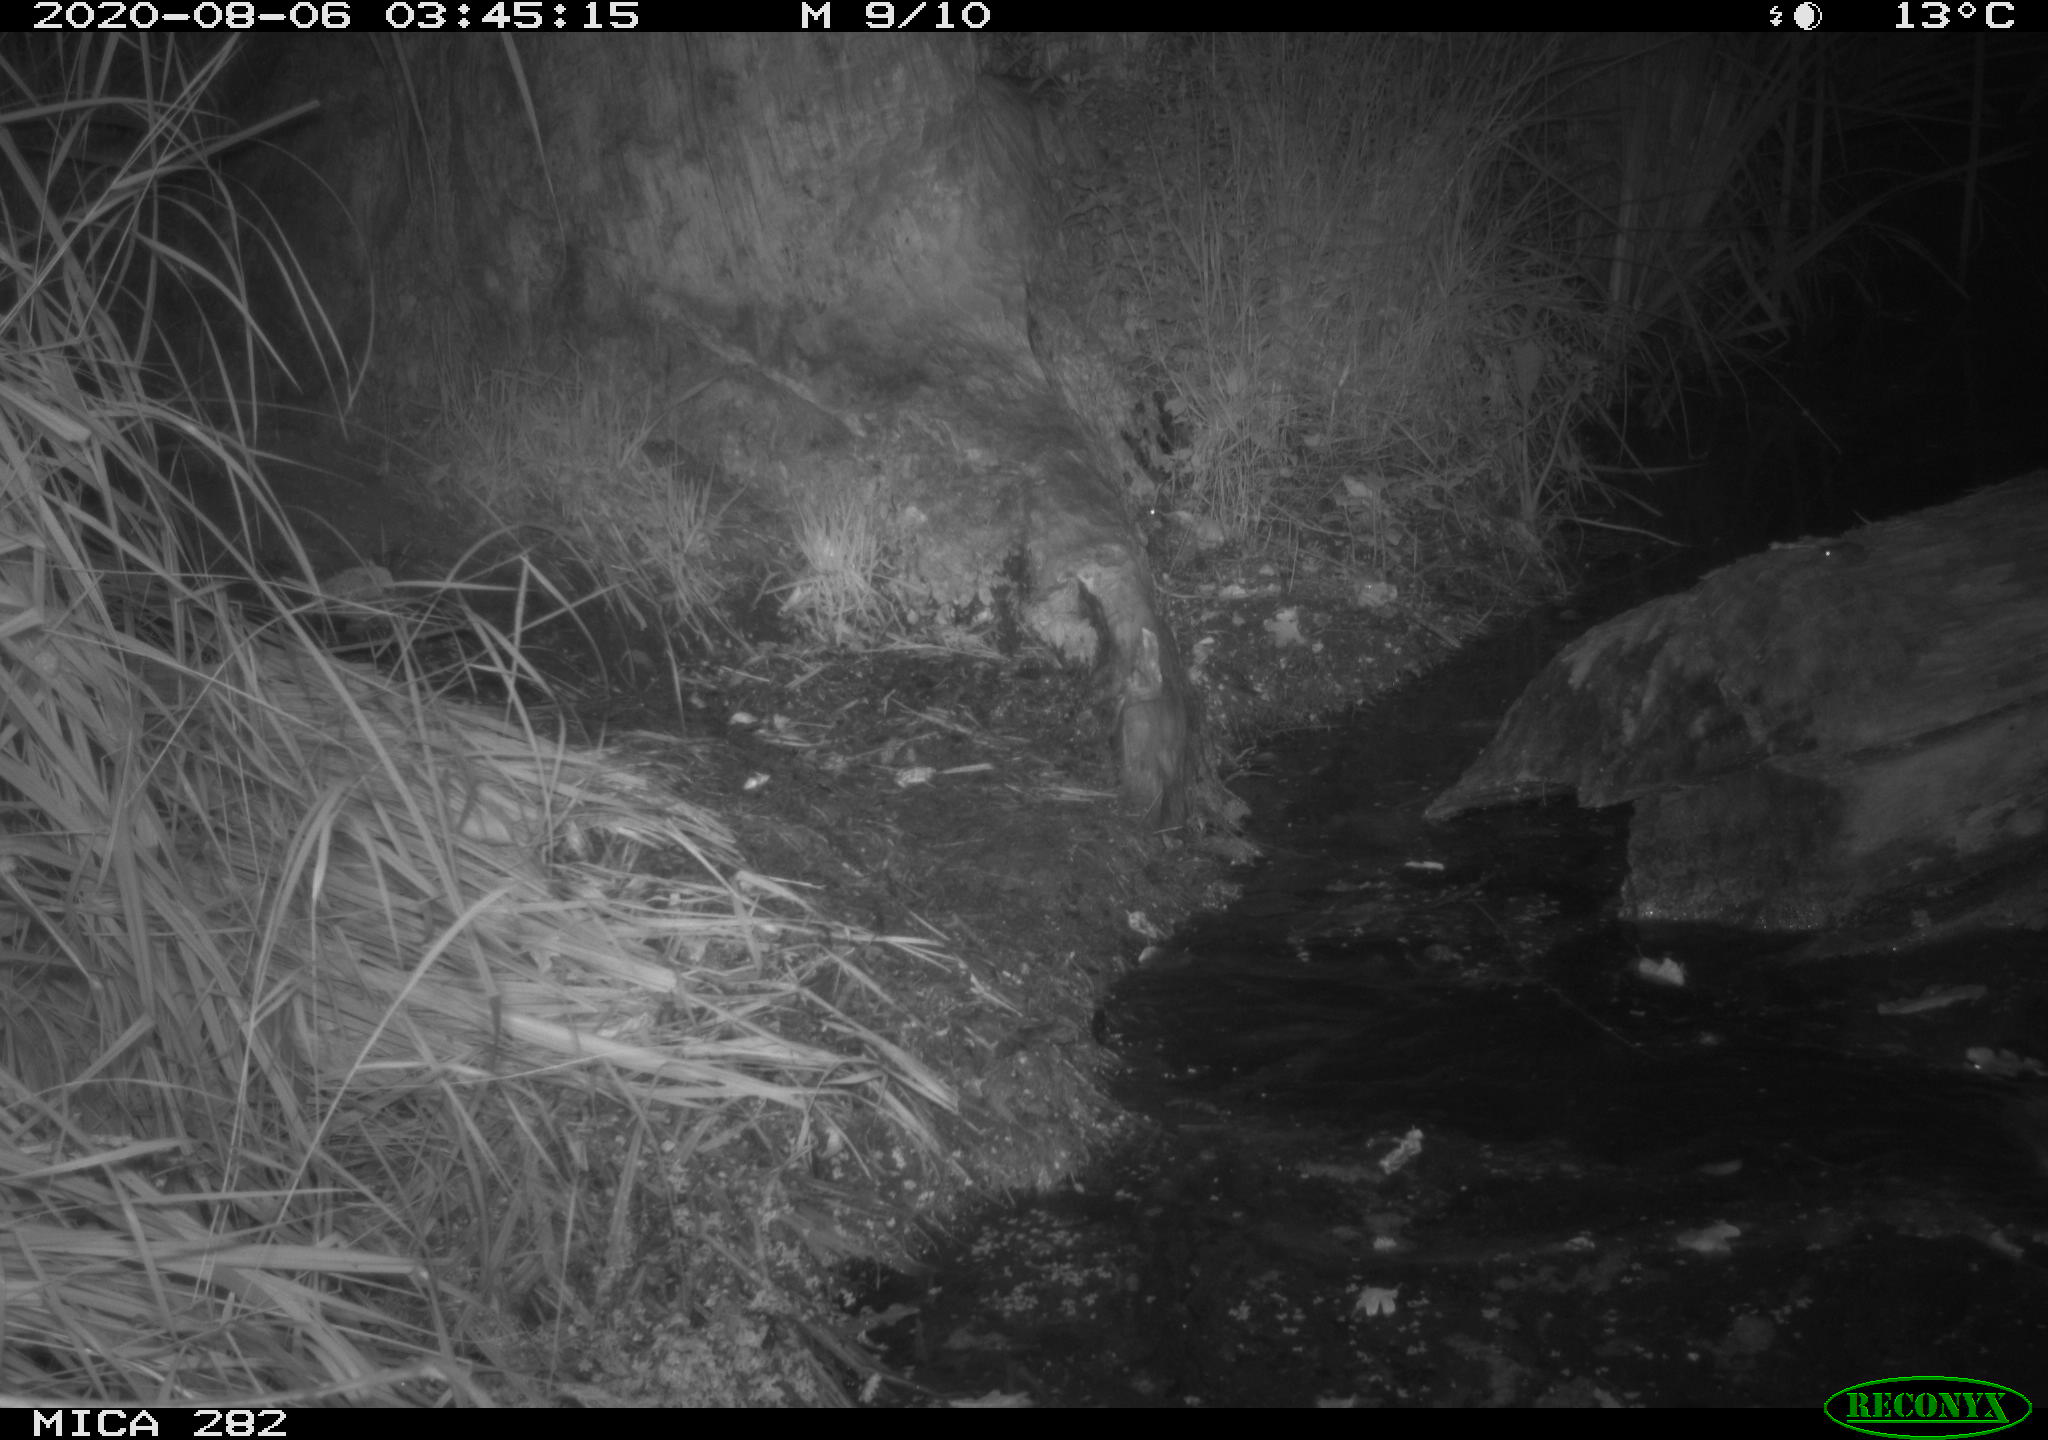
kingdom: Animalia
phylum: Chordata
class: Mammalia
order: Rodentia
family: Castoridae
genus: Castor
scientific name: Castor fiber
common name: Eurasian beaver
